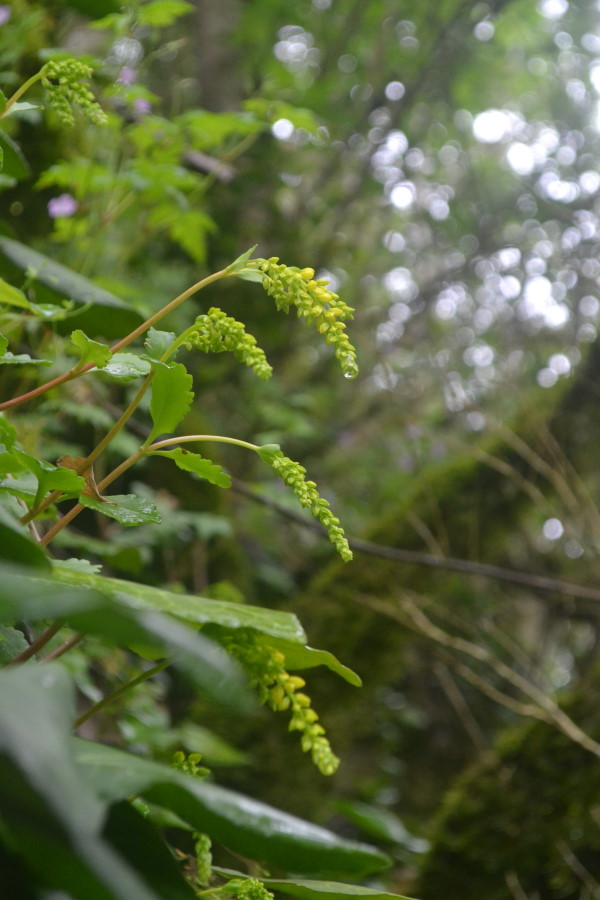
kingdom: Plantae
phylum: Tracheophyta
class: Magnoliopsida
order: Saxifragales
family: Crassulaceae
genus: Umbilicus
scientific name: Umbilicus oppositifolius
